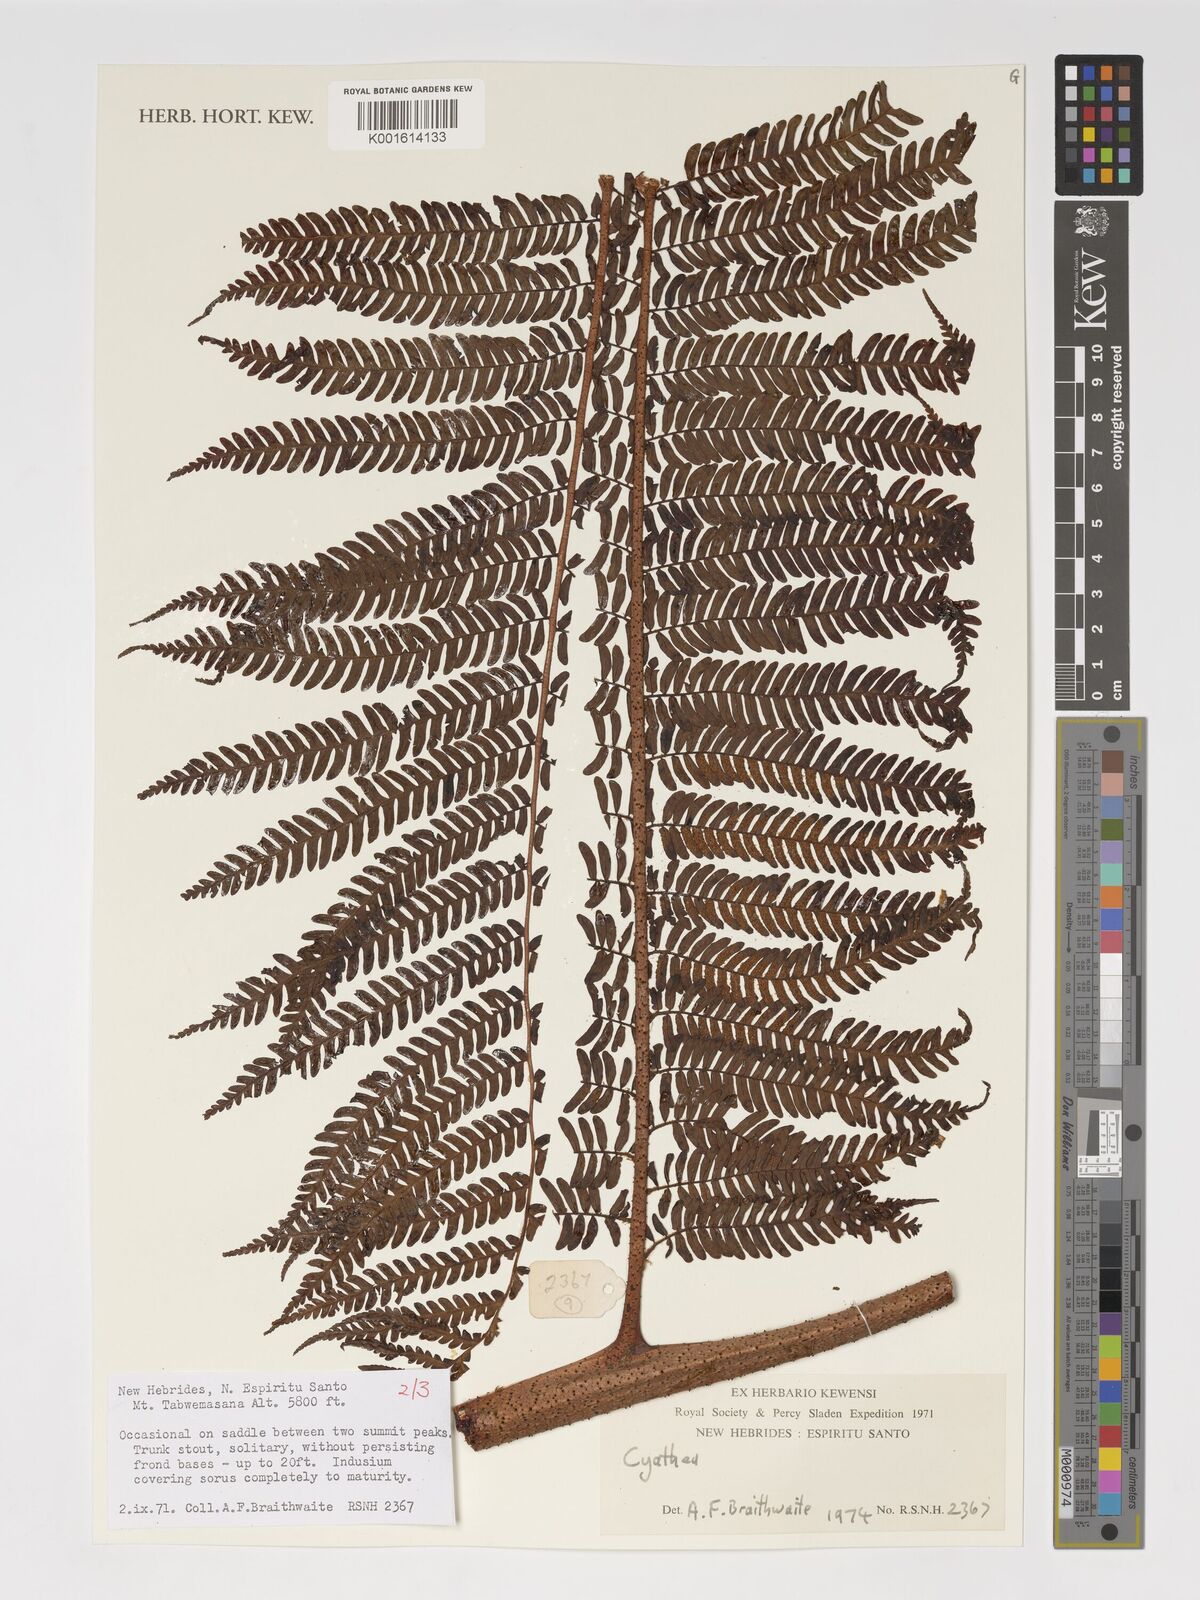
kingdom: Plantae
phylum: Tracheophyta
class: Polypodiopsida
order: Cyatheales
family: Cyatheaceae
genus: Cyathea
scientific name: Cyathea
